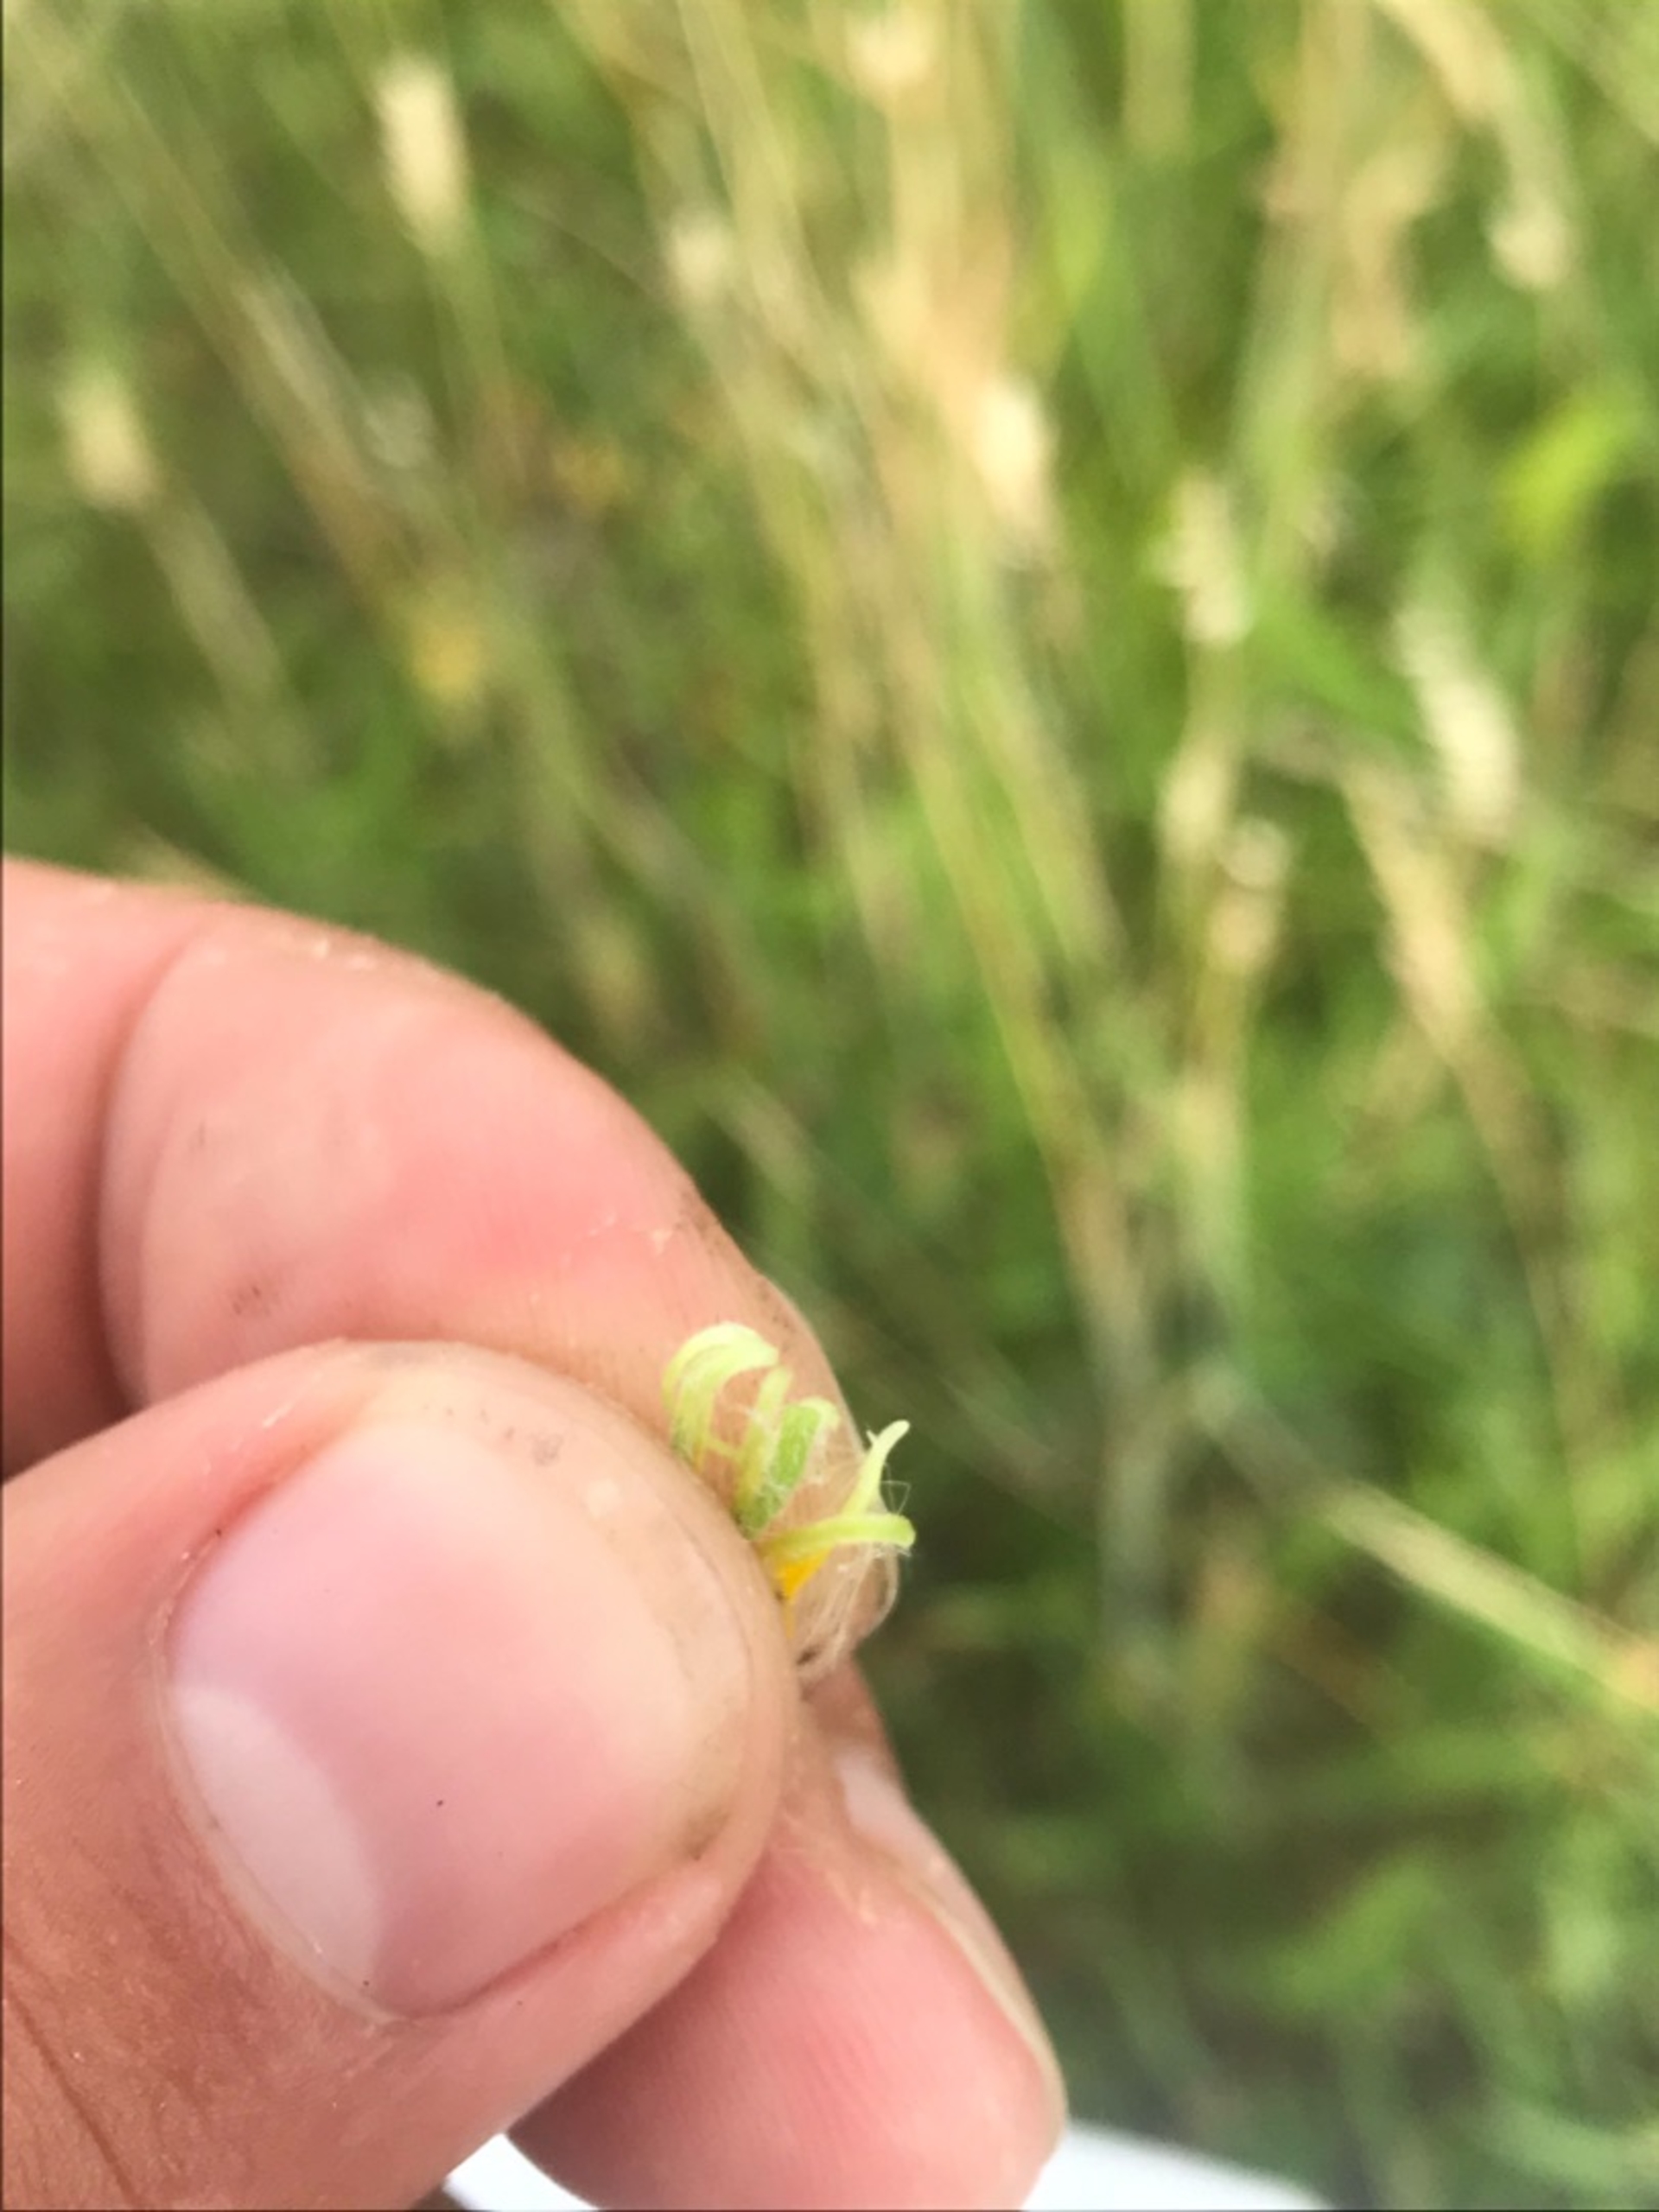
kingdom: Plantae
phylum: Tracheophyta
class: Magnoliopsida
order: Asterales
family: Asteraceae
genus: Pentanema
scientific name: Pentanema britannicum
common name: Soløje-alant
